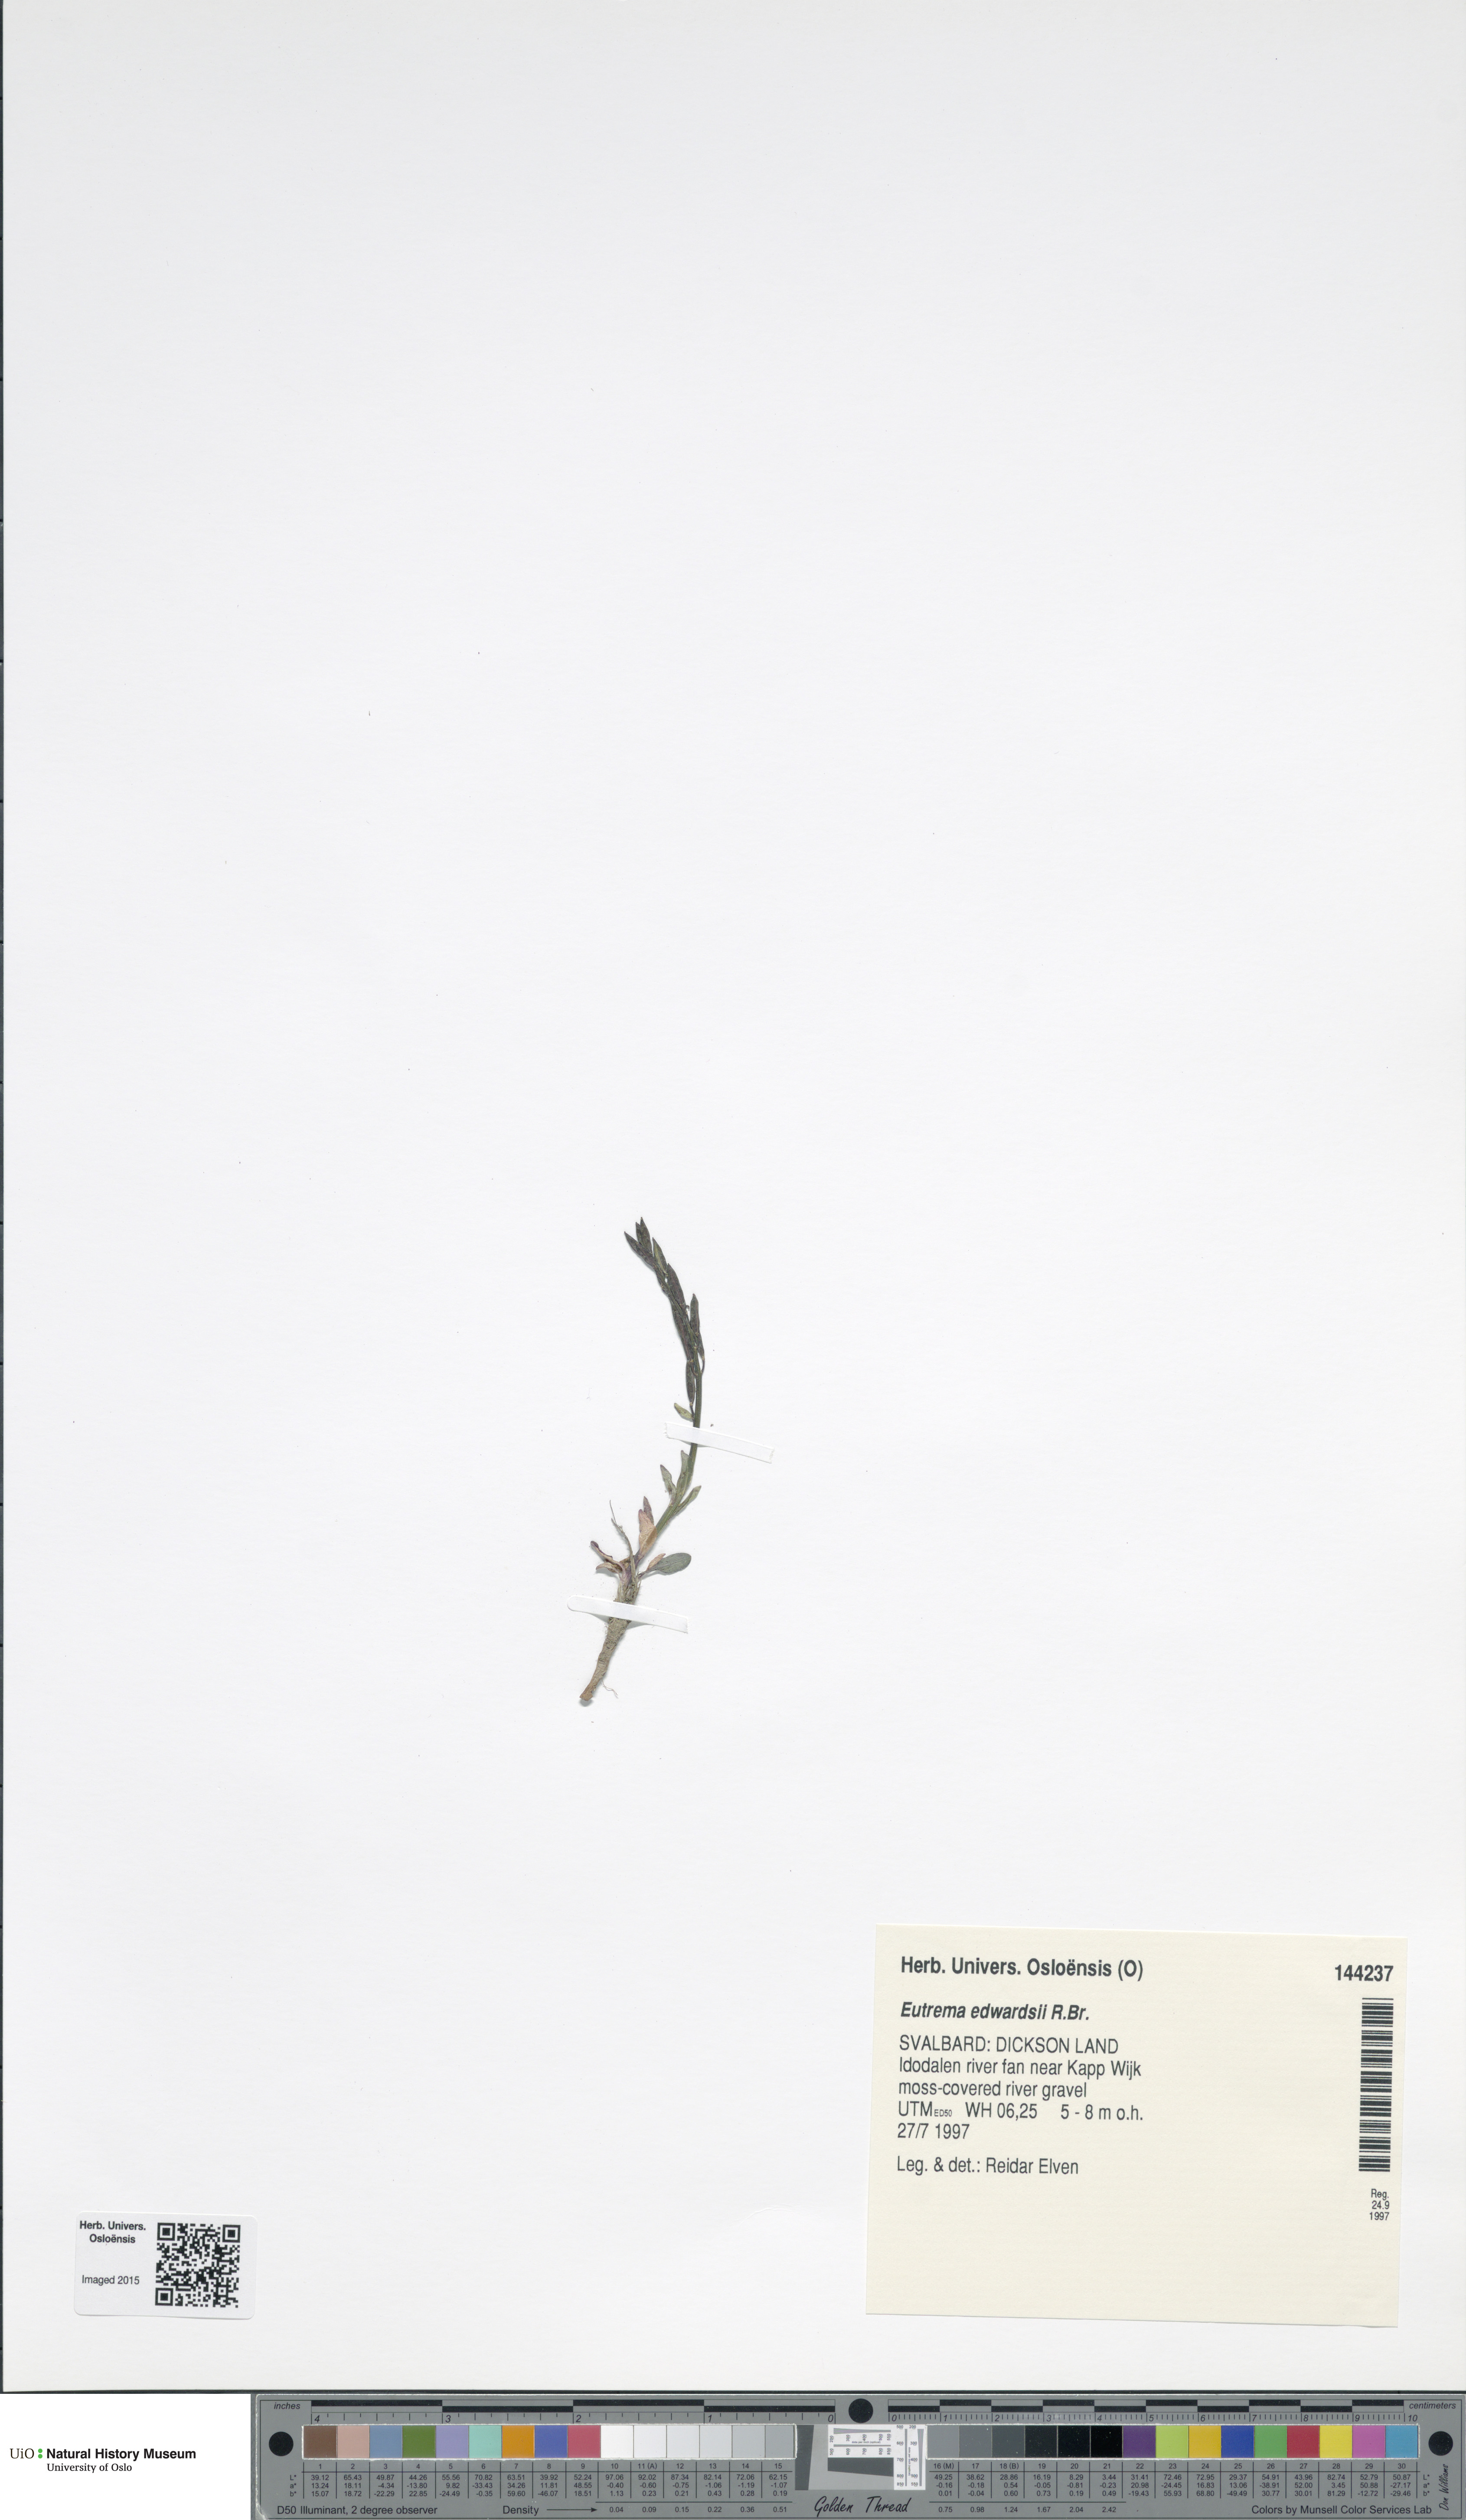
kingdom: Plantae
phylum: Tracheophyta
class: Magnoliopsida
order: Brassicales
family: Brassicaceae
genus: Eutrema
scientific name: Eutrema edwardsii
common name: Penland alpine fen mustard
